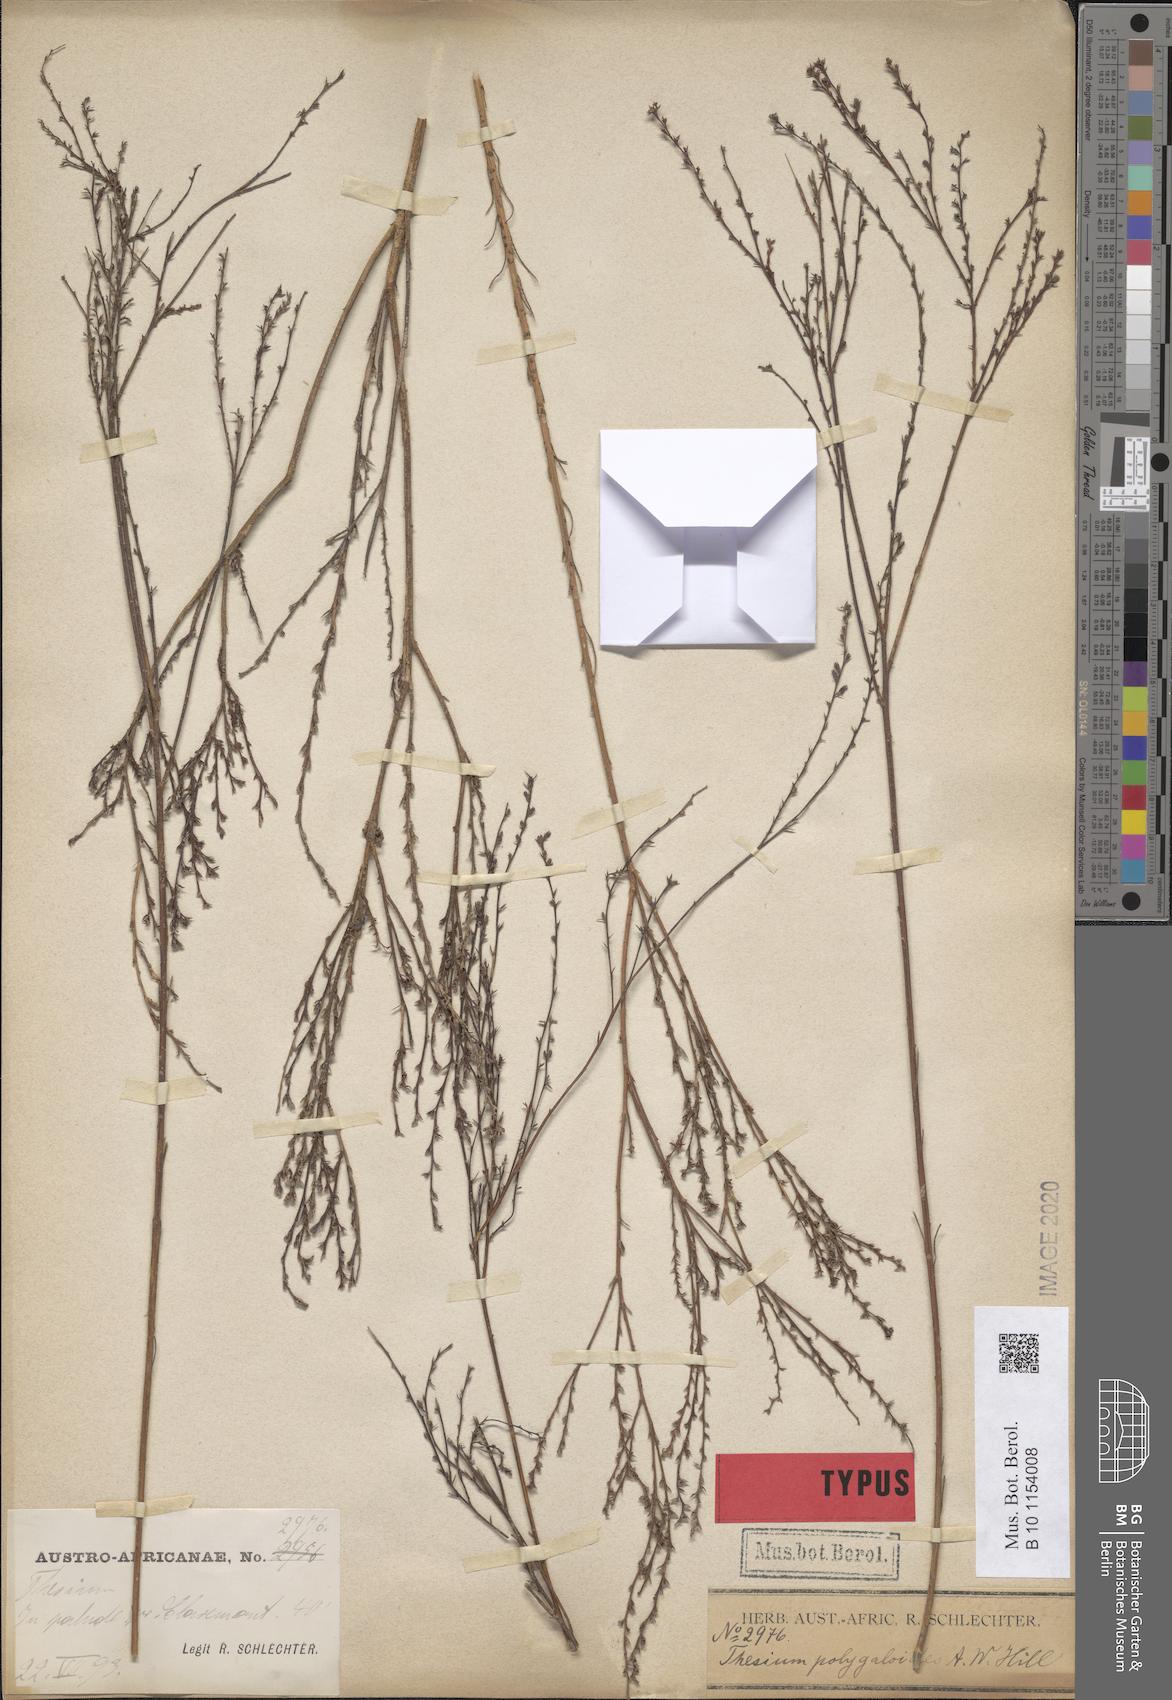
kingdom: Plantae
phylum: Tracheophyta
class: Magnoliopsida
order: Santalales
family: Thesiaceae
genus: Thesium
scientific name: Thesium polygaloides
